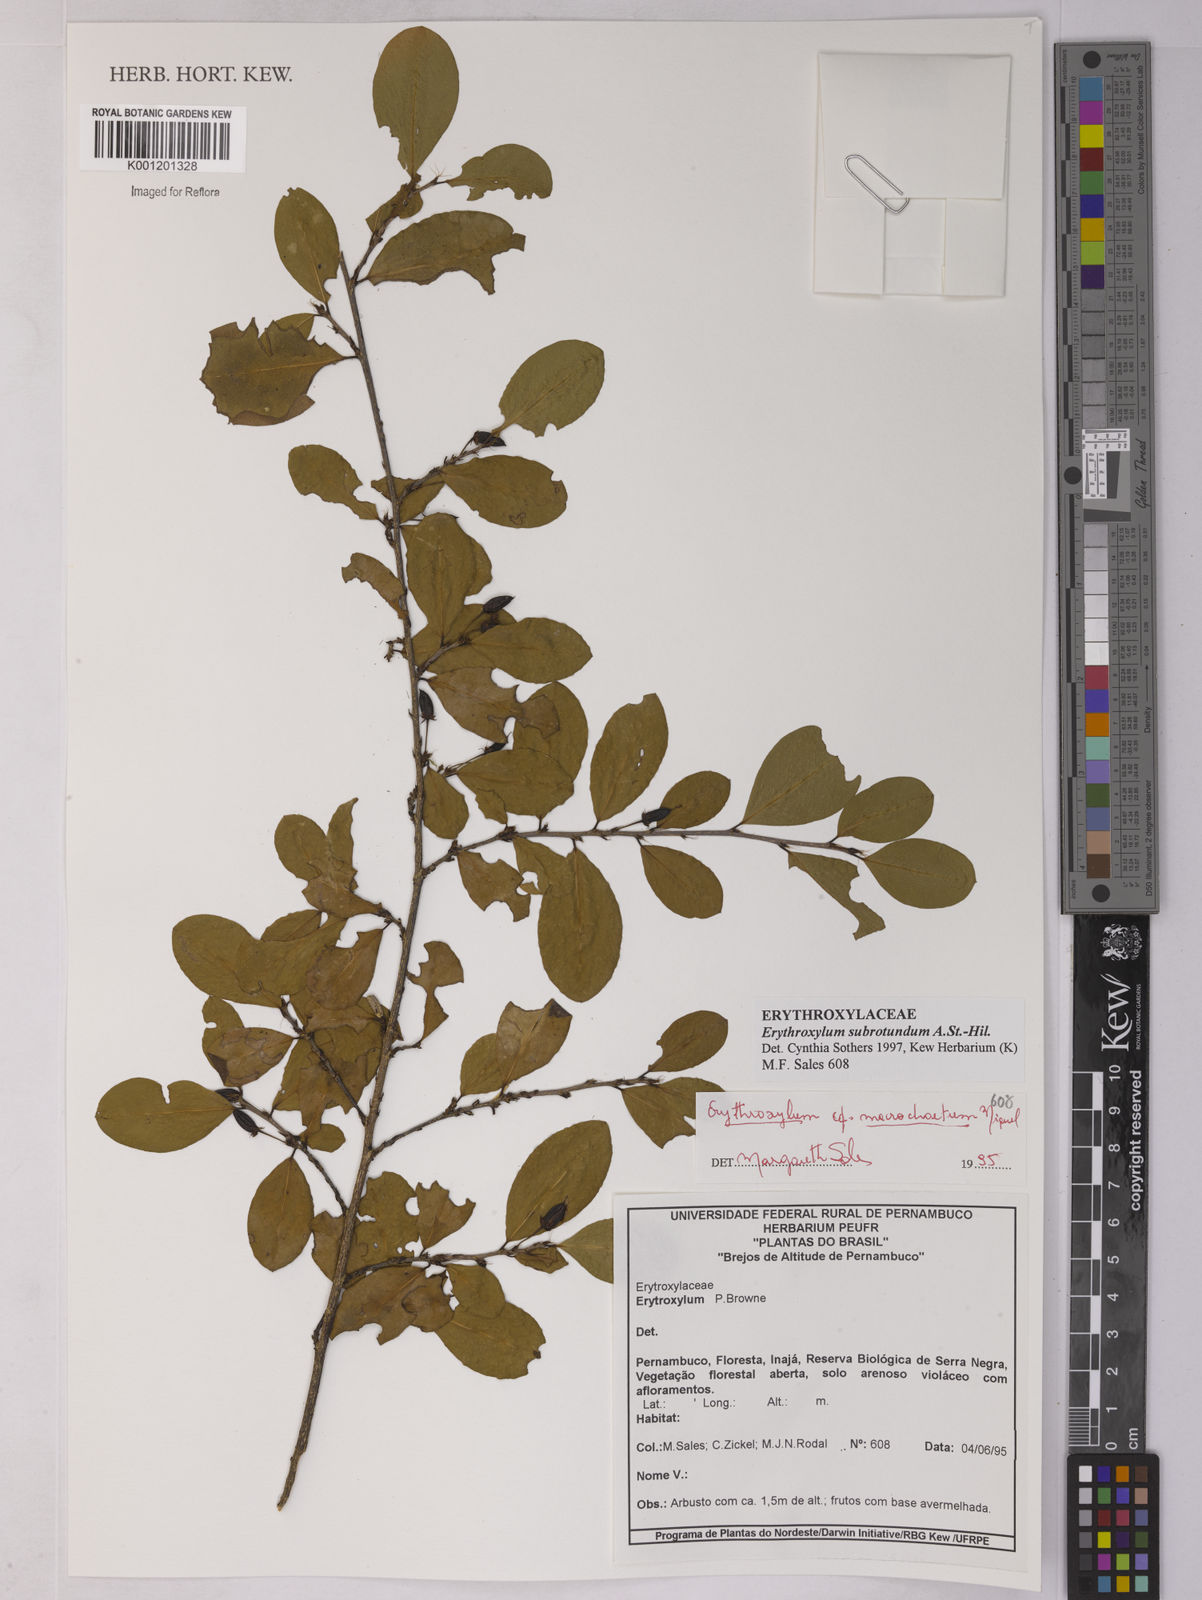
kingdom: Plantae
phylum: Tracheophyta
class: Magnoliopsida
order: Malpighiales
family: Erythroxylaceae
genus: Erythroxylum
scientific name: Erythroxylum subrotundum
